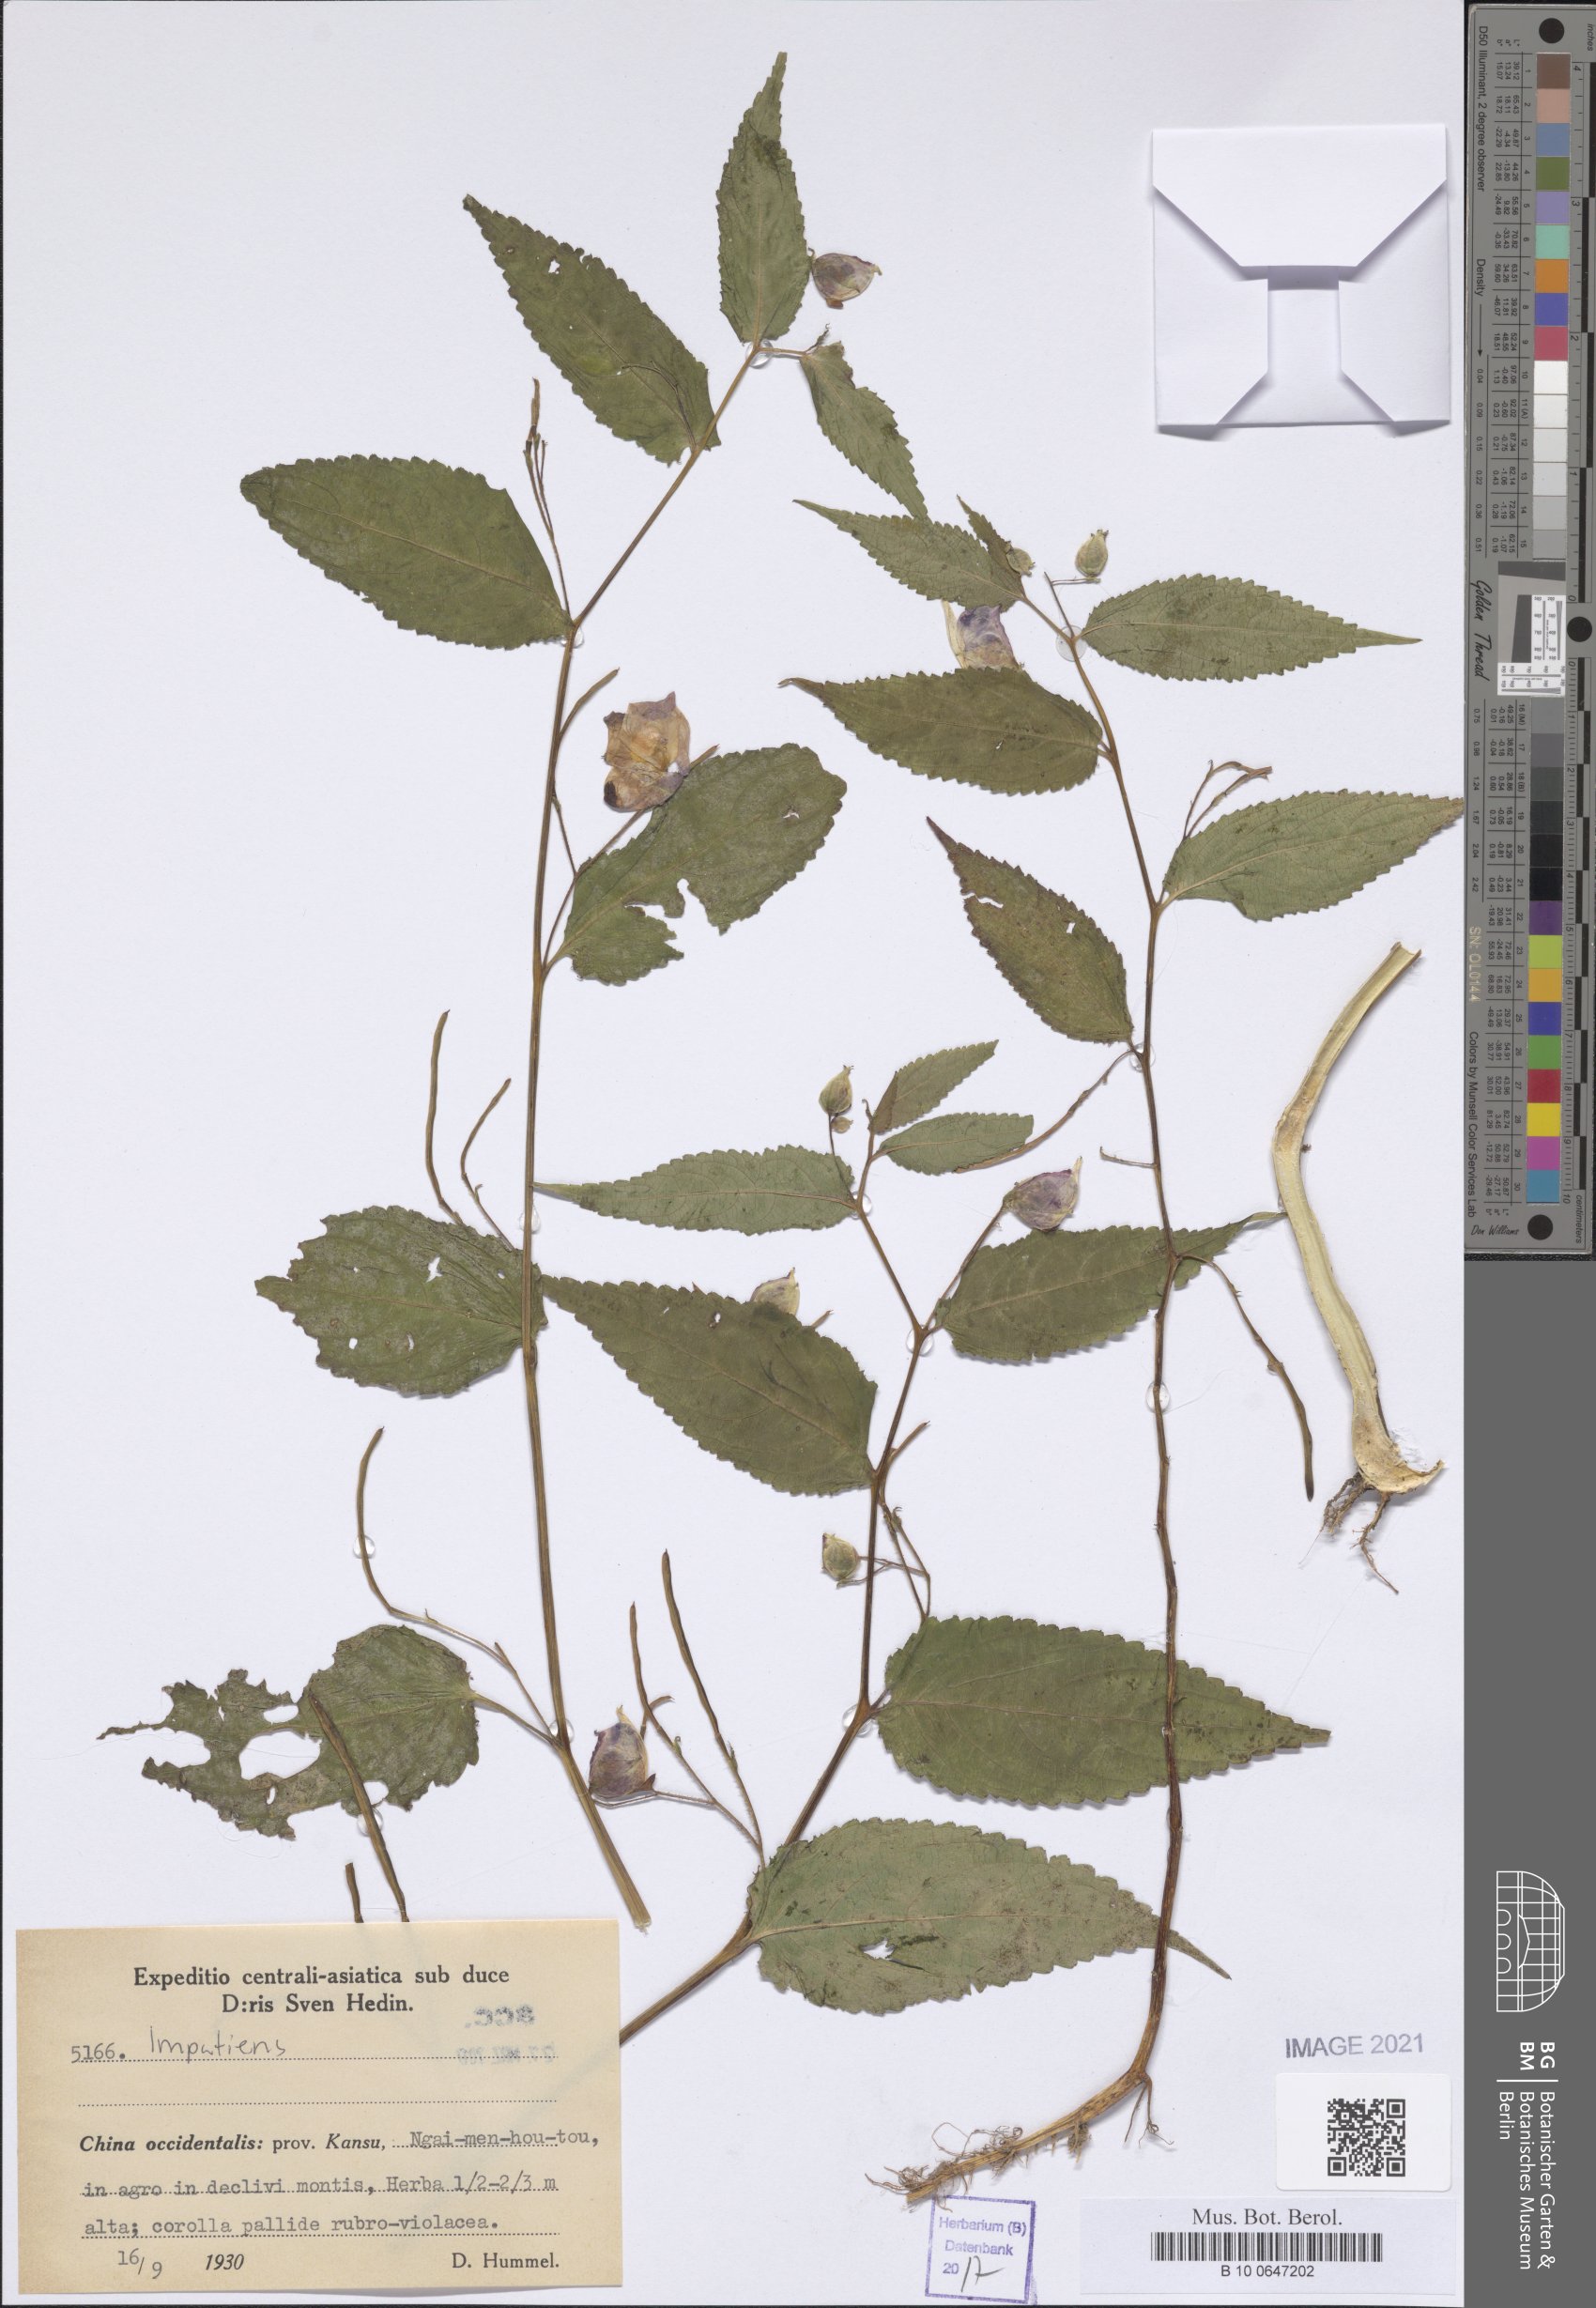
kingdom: Plantae
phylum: Tracheophyta
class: Magnoliopsida
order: Ericales
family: Balsaminaceae
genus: Impatiens
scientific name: Impatiens
